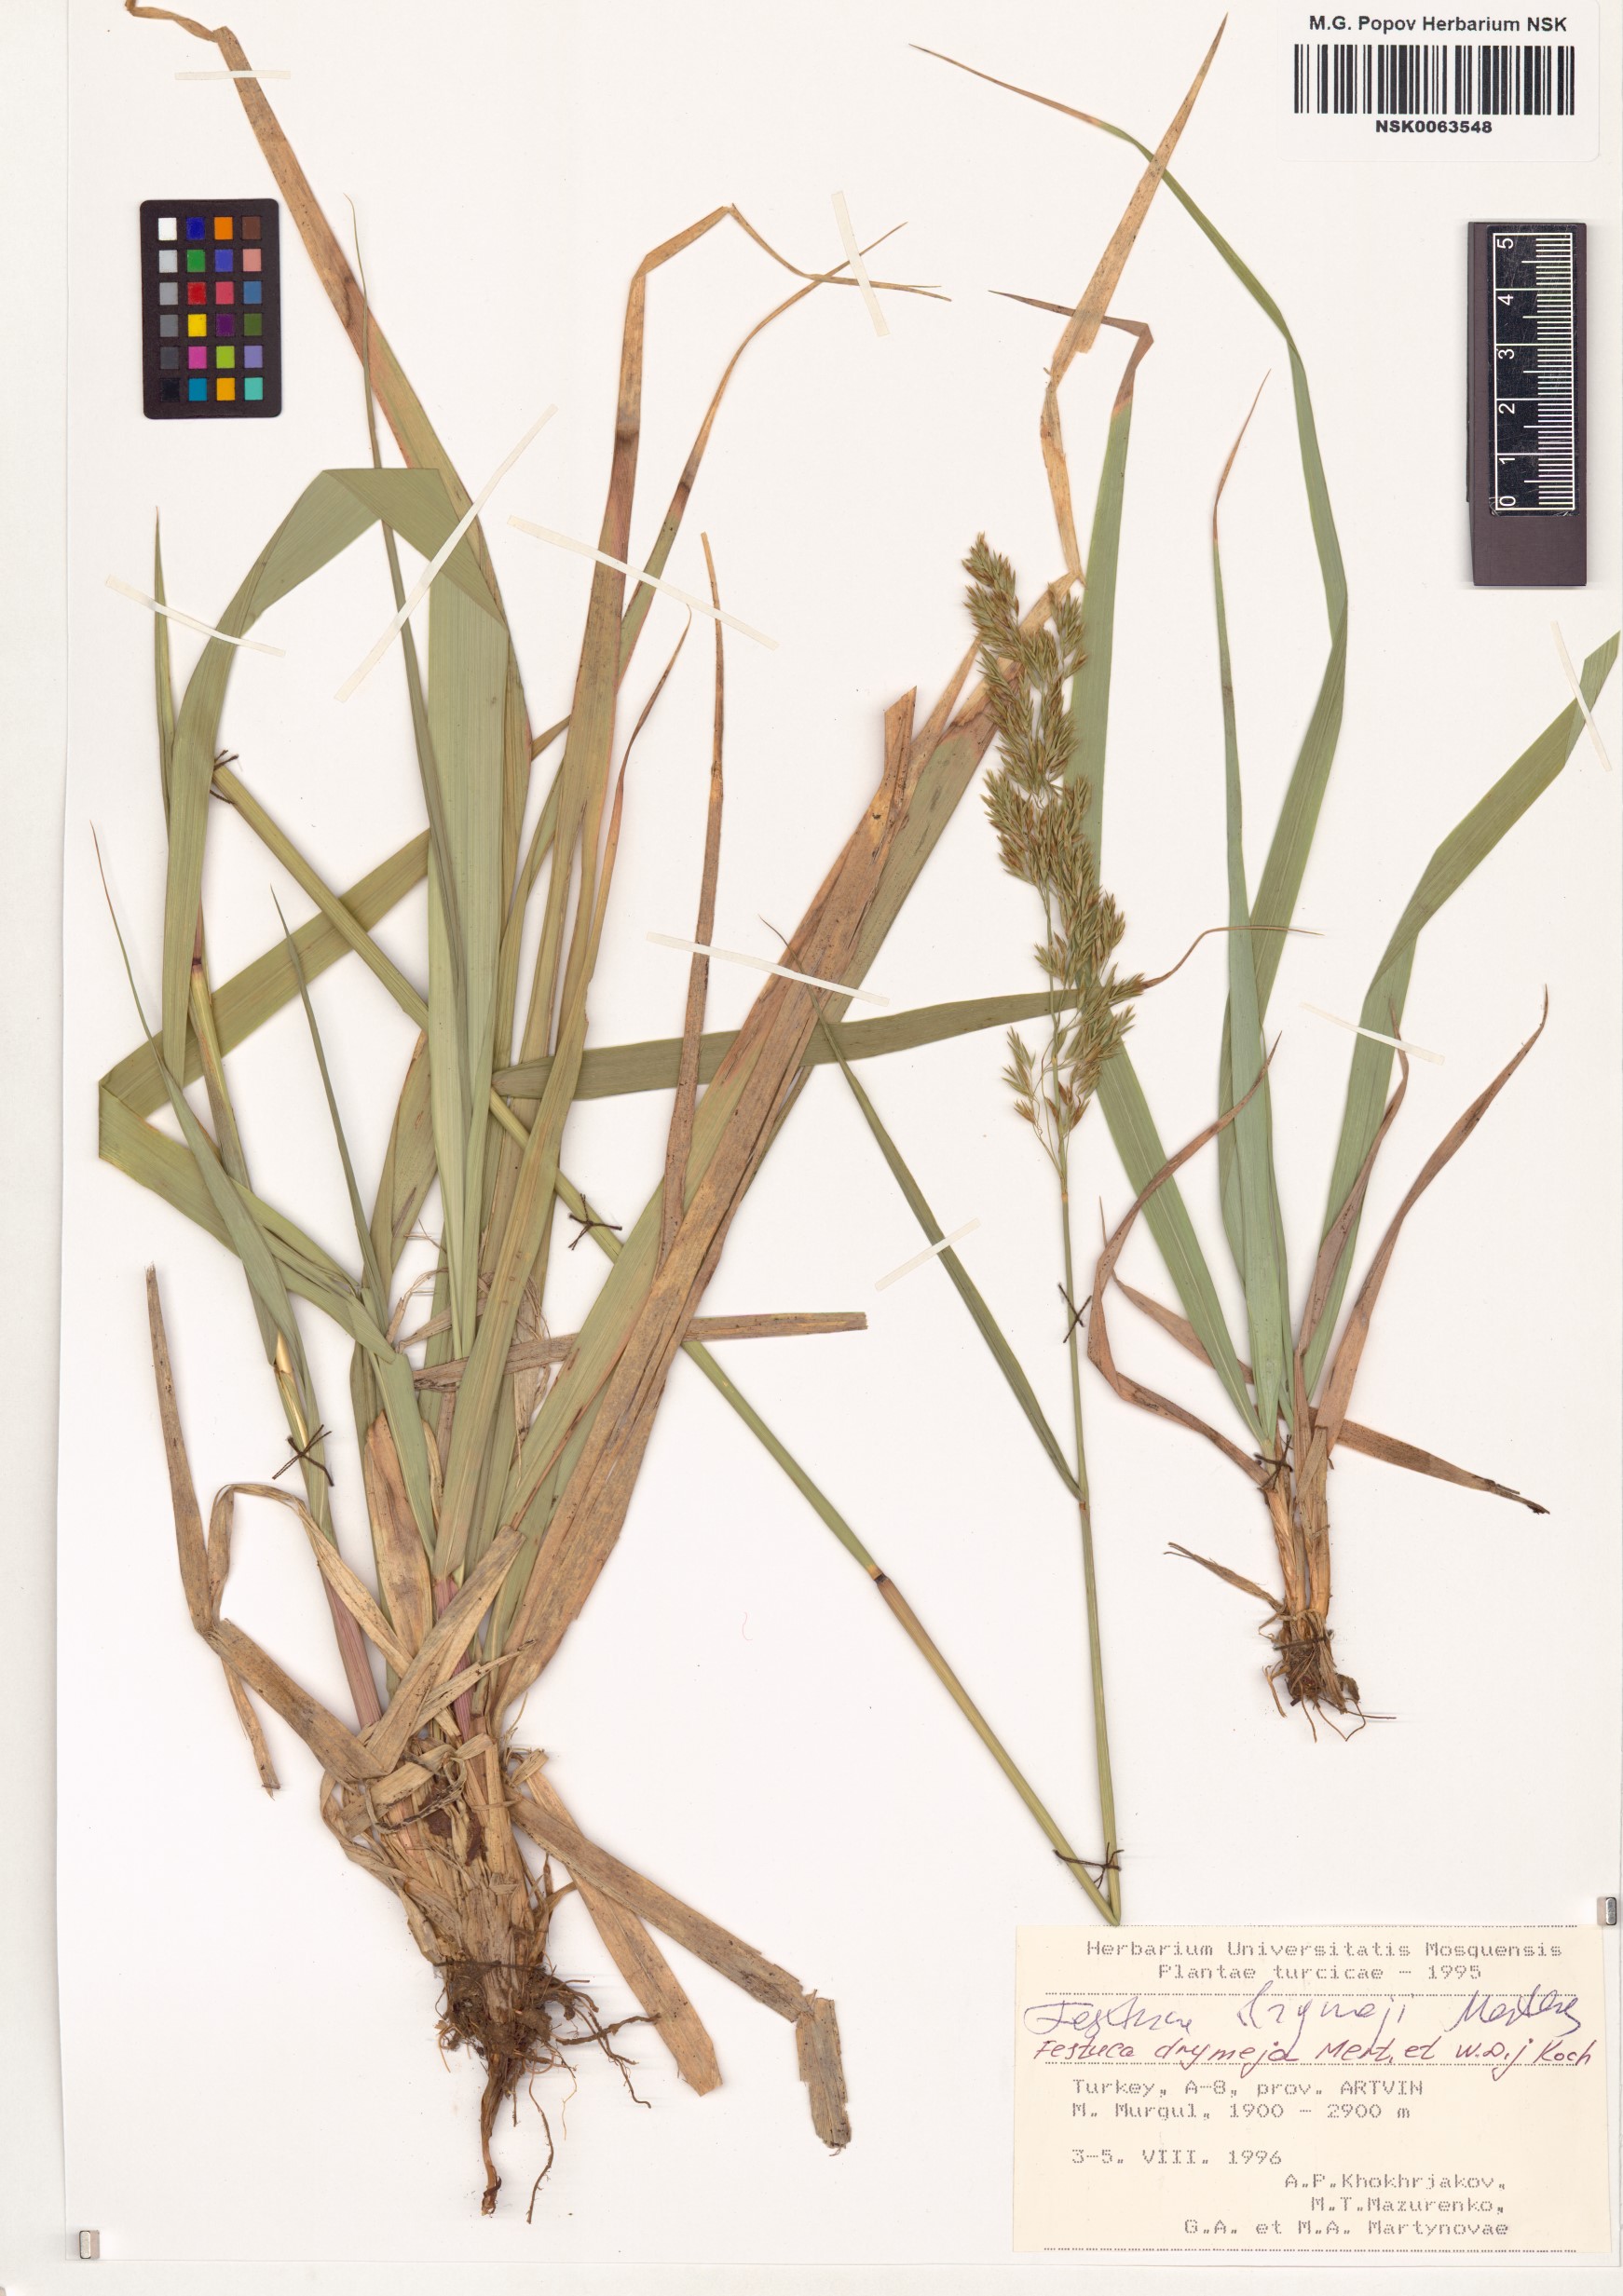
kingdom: Plantae
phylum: Tracheophyta
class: Liliopsida
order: Poales
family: Poaceae
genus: Festuca
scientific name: Festuca drymeja
